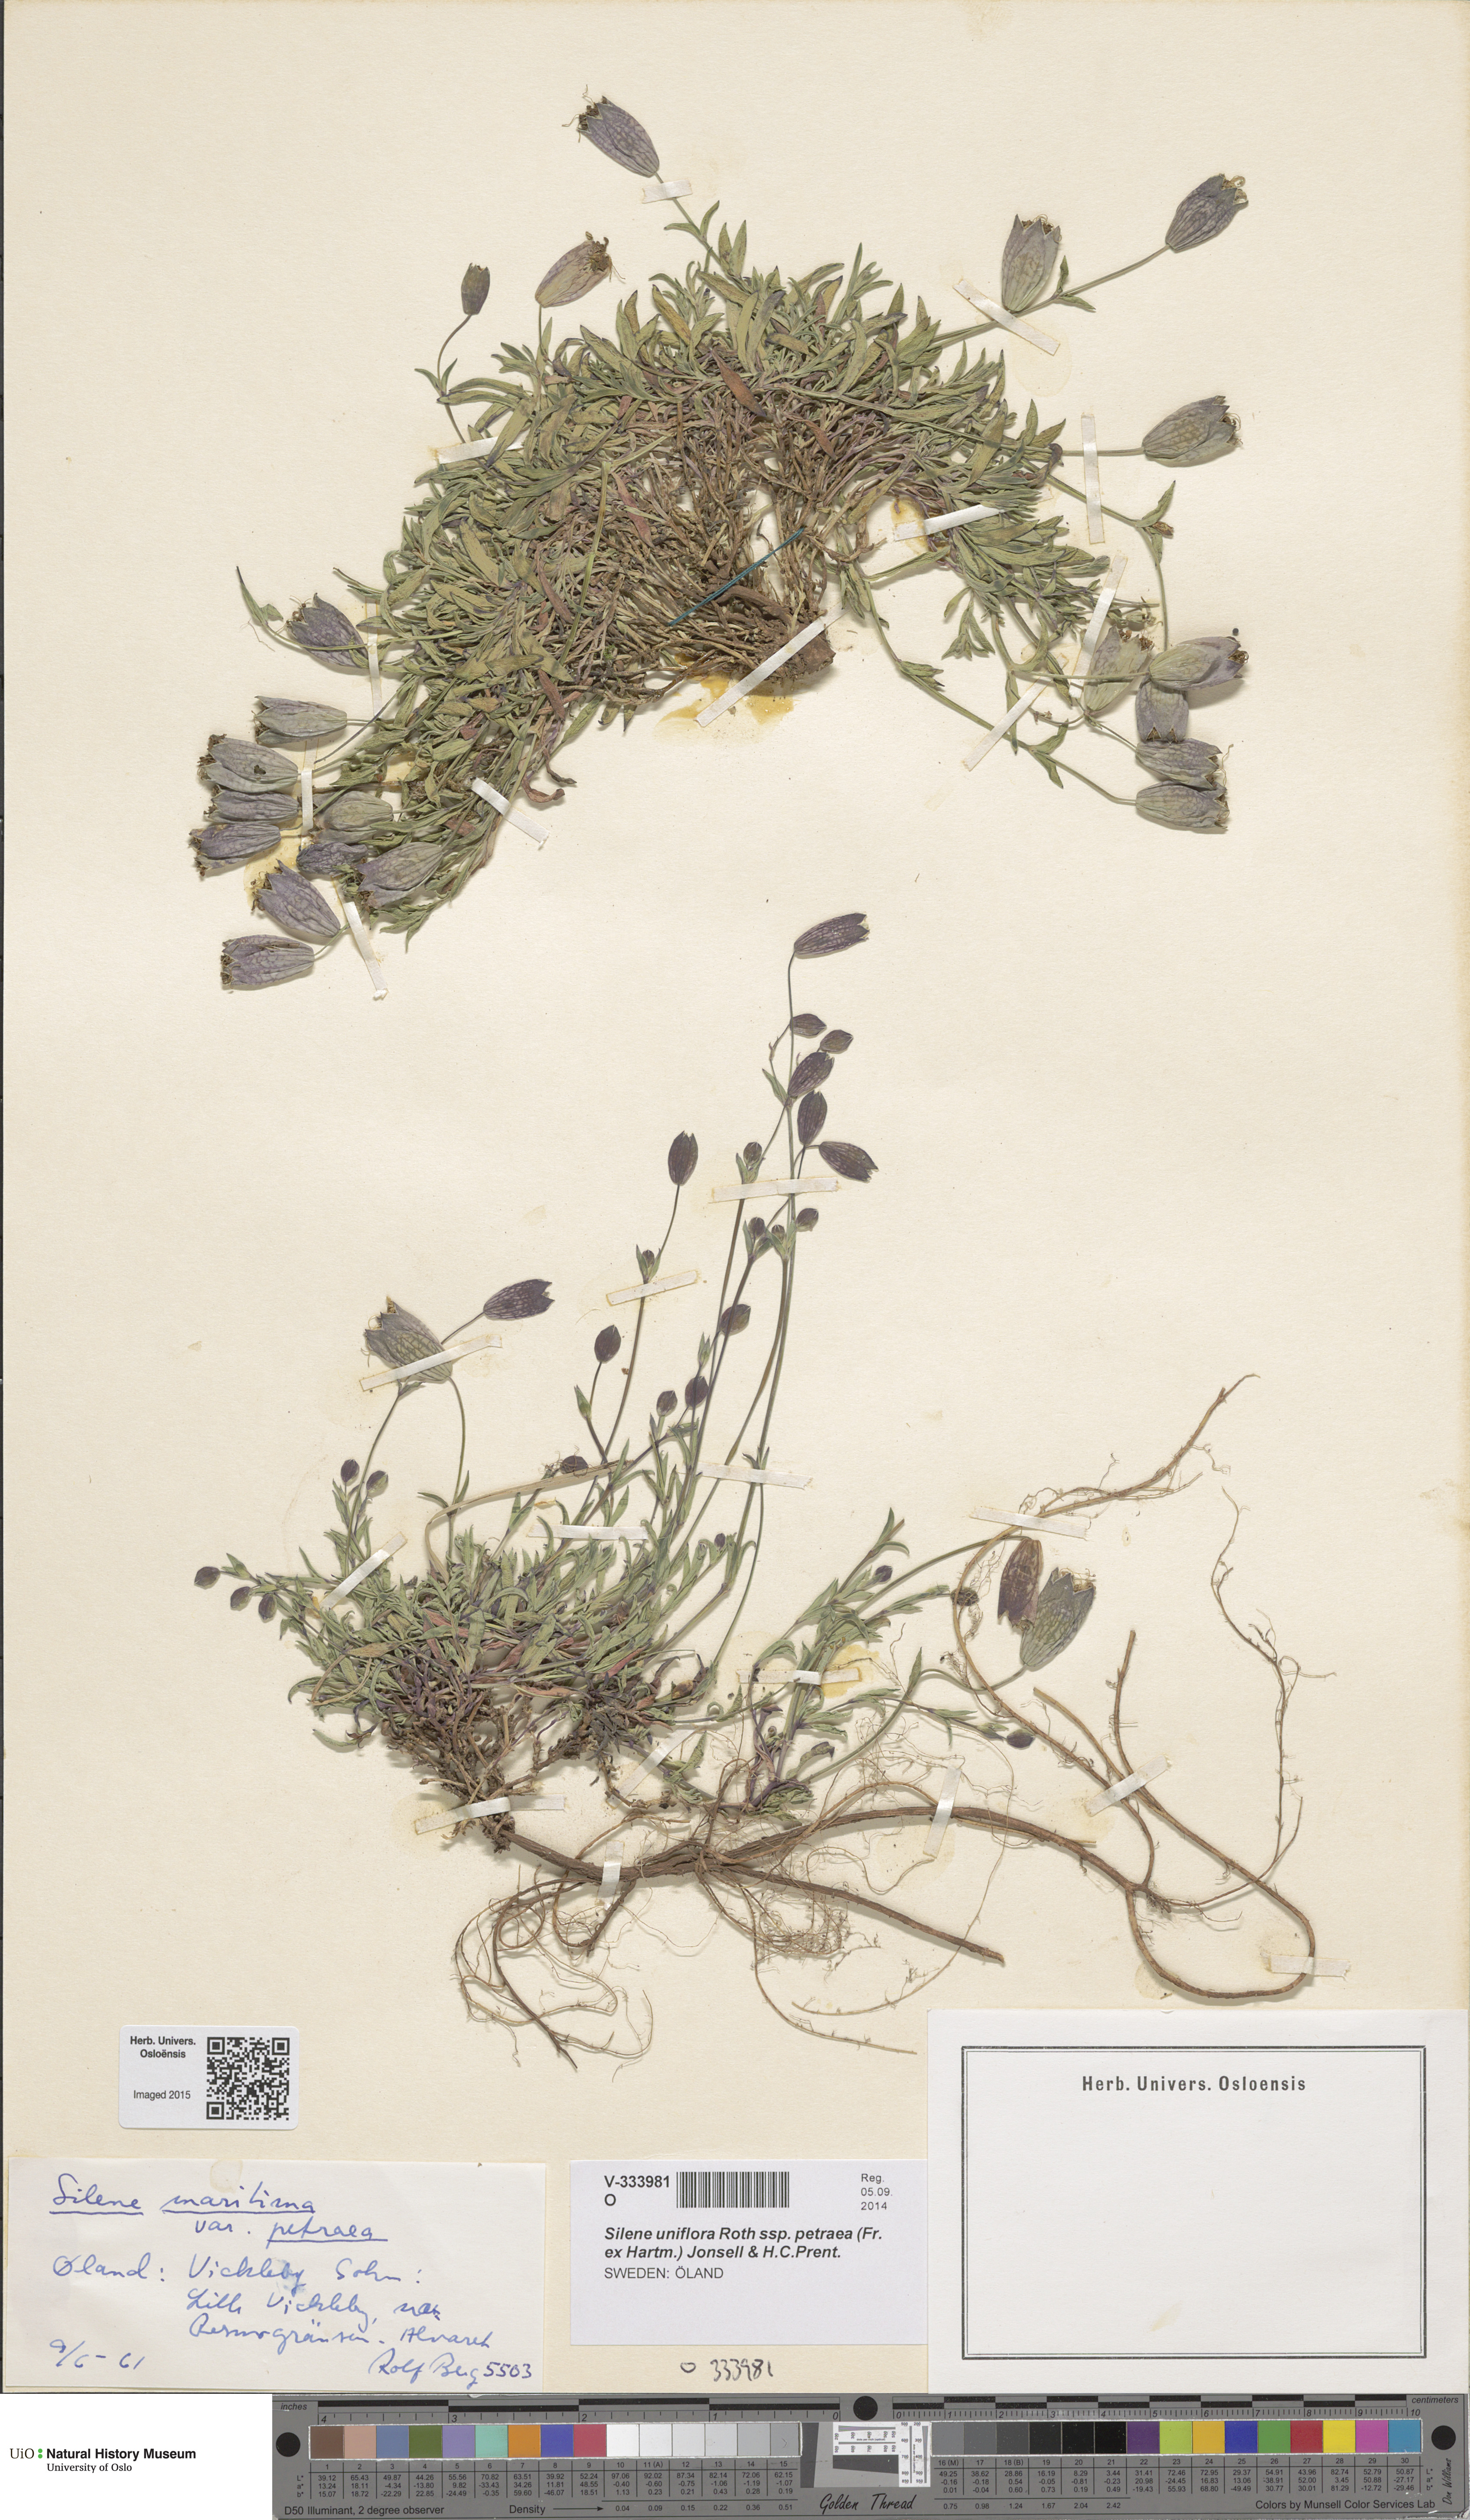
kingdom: Plantae
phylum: Tracheophyta
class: Magnoliopsida
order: Caryophyllales
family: Caryophyllaceae
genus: Silene
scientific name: Silene uniflora
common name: Sea campion
